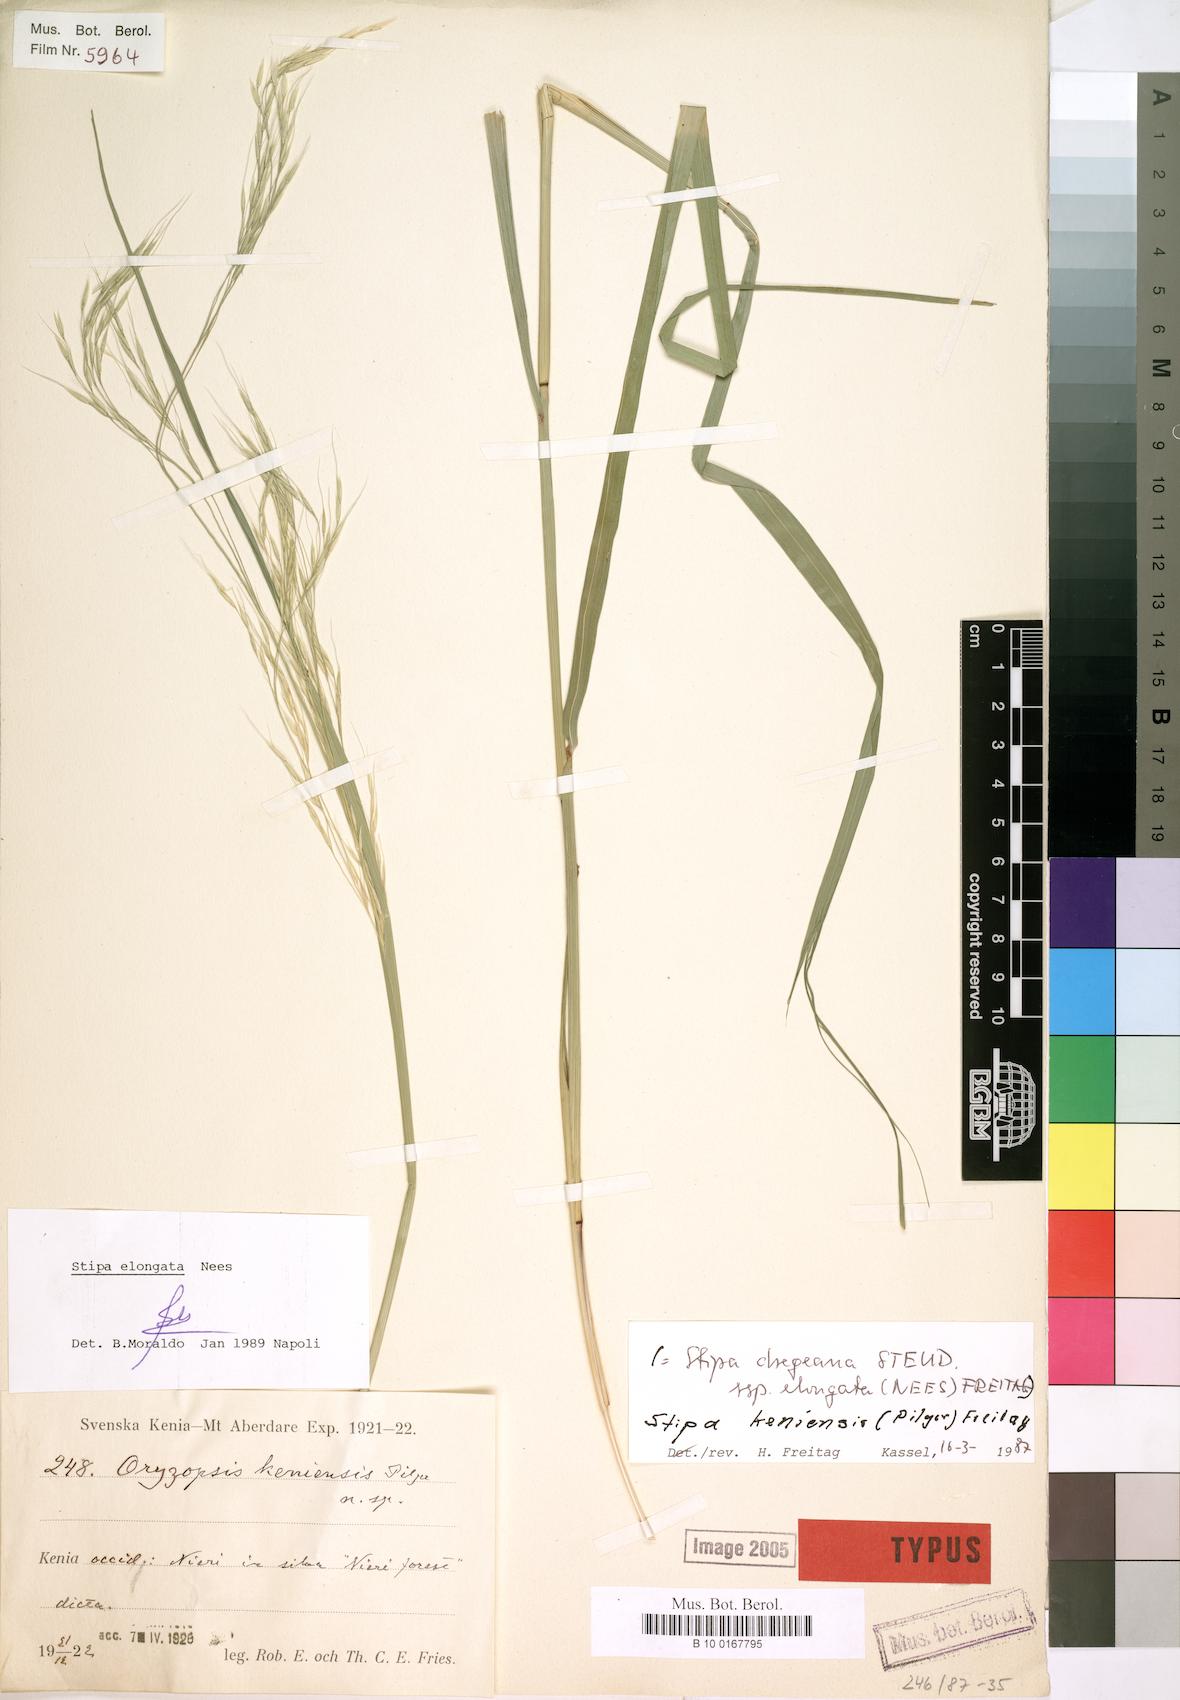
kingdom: Plantae
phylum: Tracheophyta
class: Liliopsida
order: Poales
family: Poaceae
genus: Stipa
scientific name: Stipa keniensis
